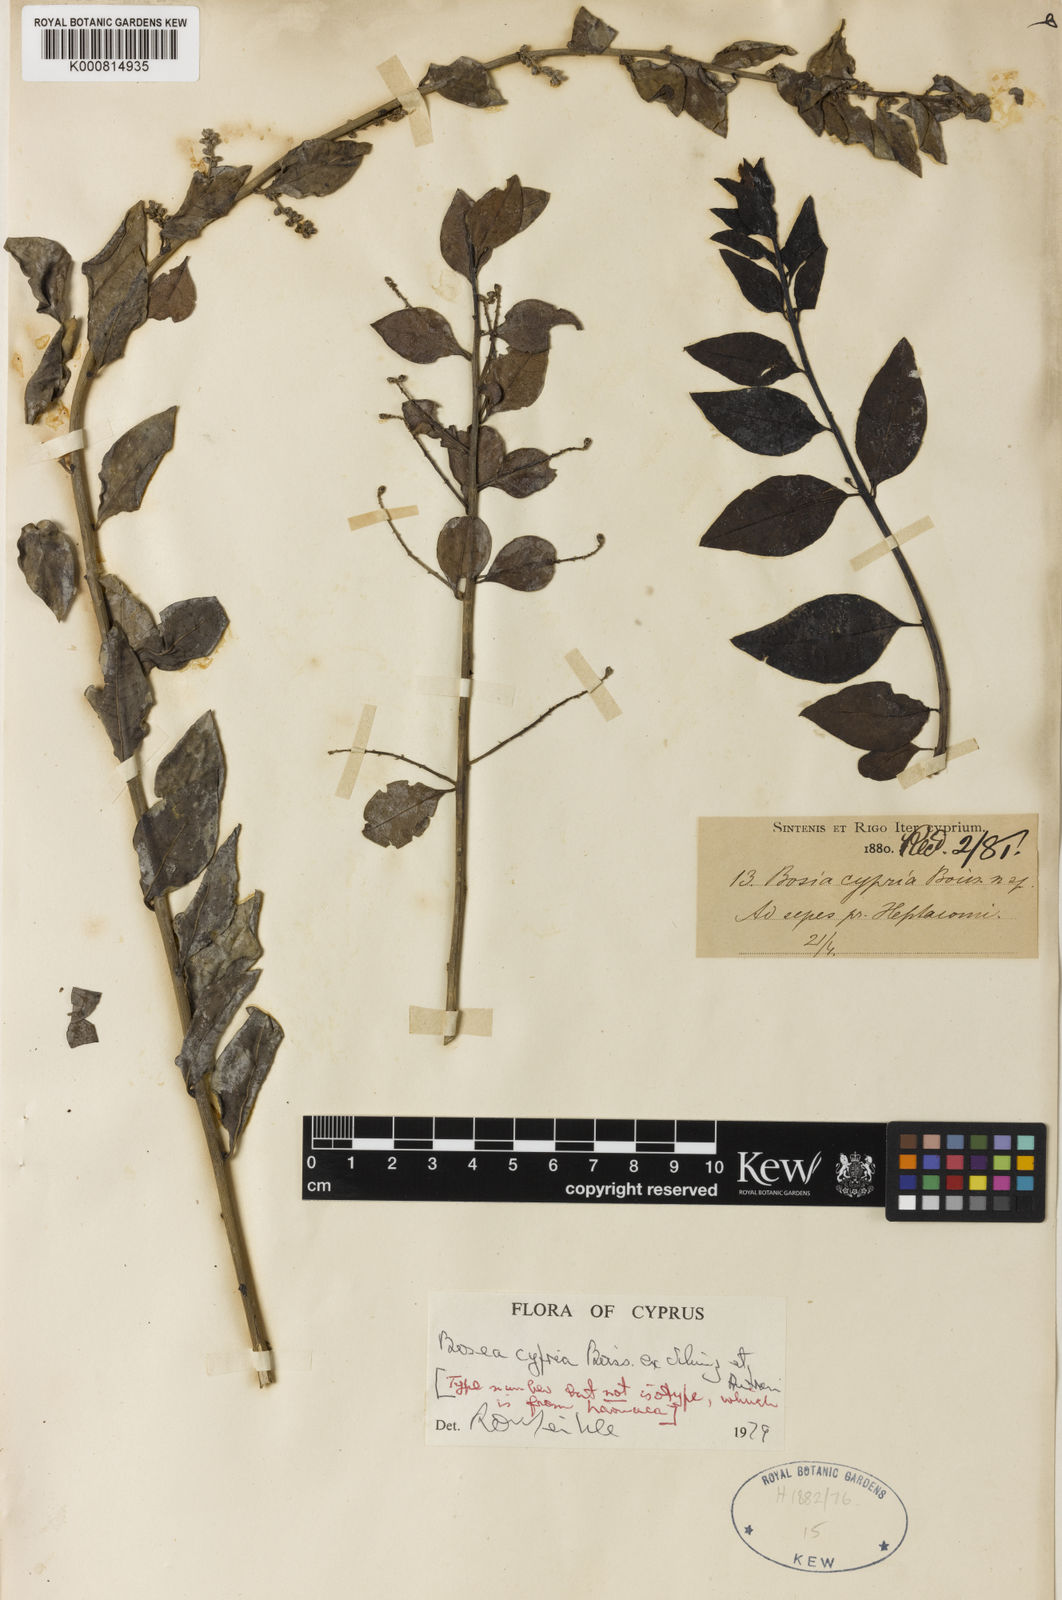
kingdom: Plantae
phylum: Tracheophyta
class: Magnoliopsida
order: Caryophyllales
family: Amaranthaceae
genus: Bosea
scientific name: Bosea cypria
